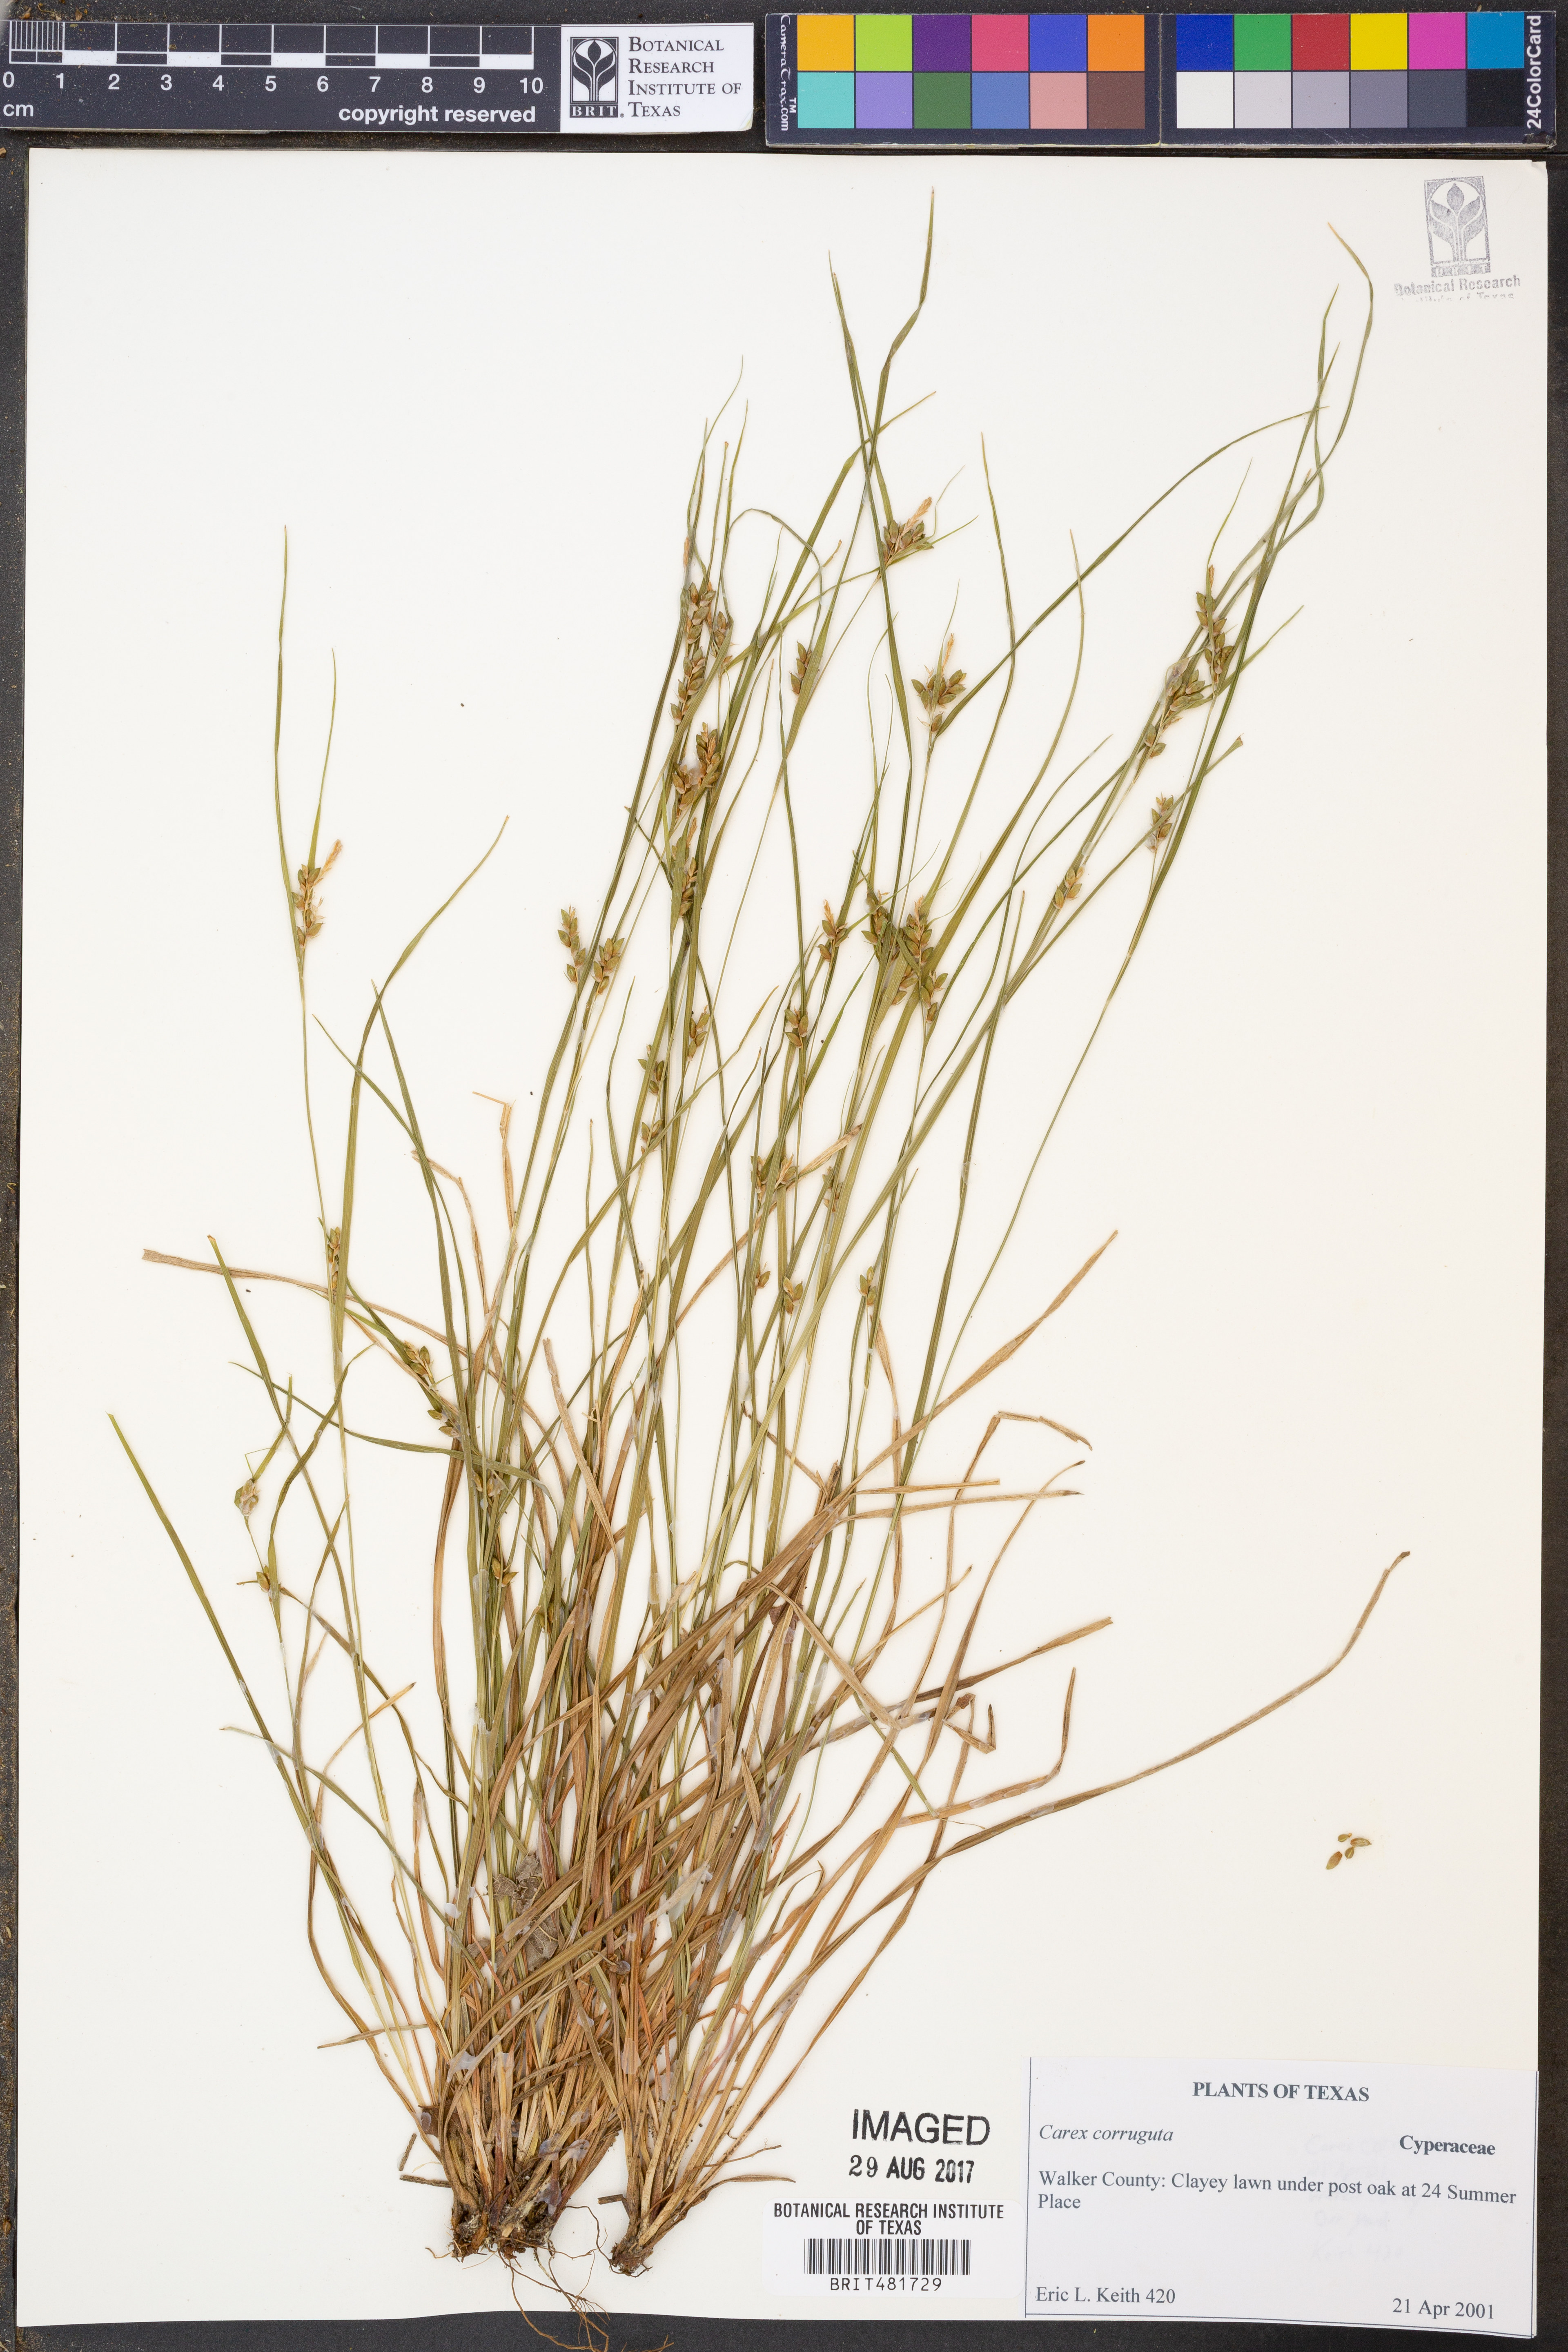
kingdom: Plantae
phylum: Tracheophyta
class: Liliopsida
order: Poales
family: Cyperaceae
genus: Carex
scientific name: Carex corrugata
